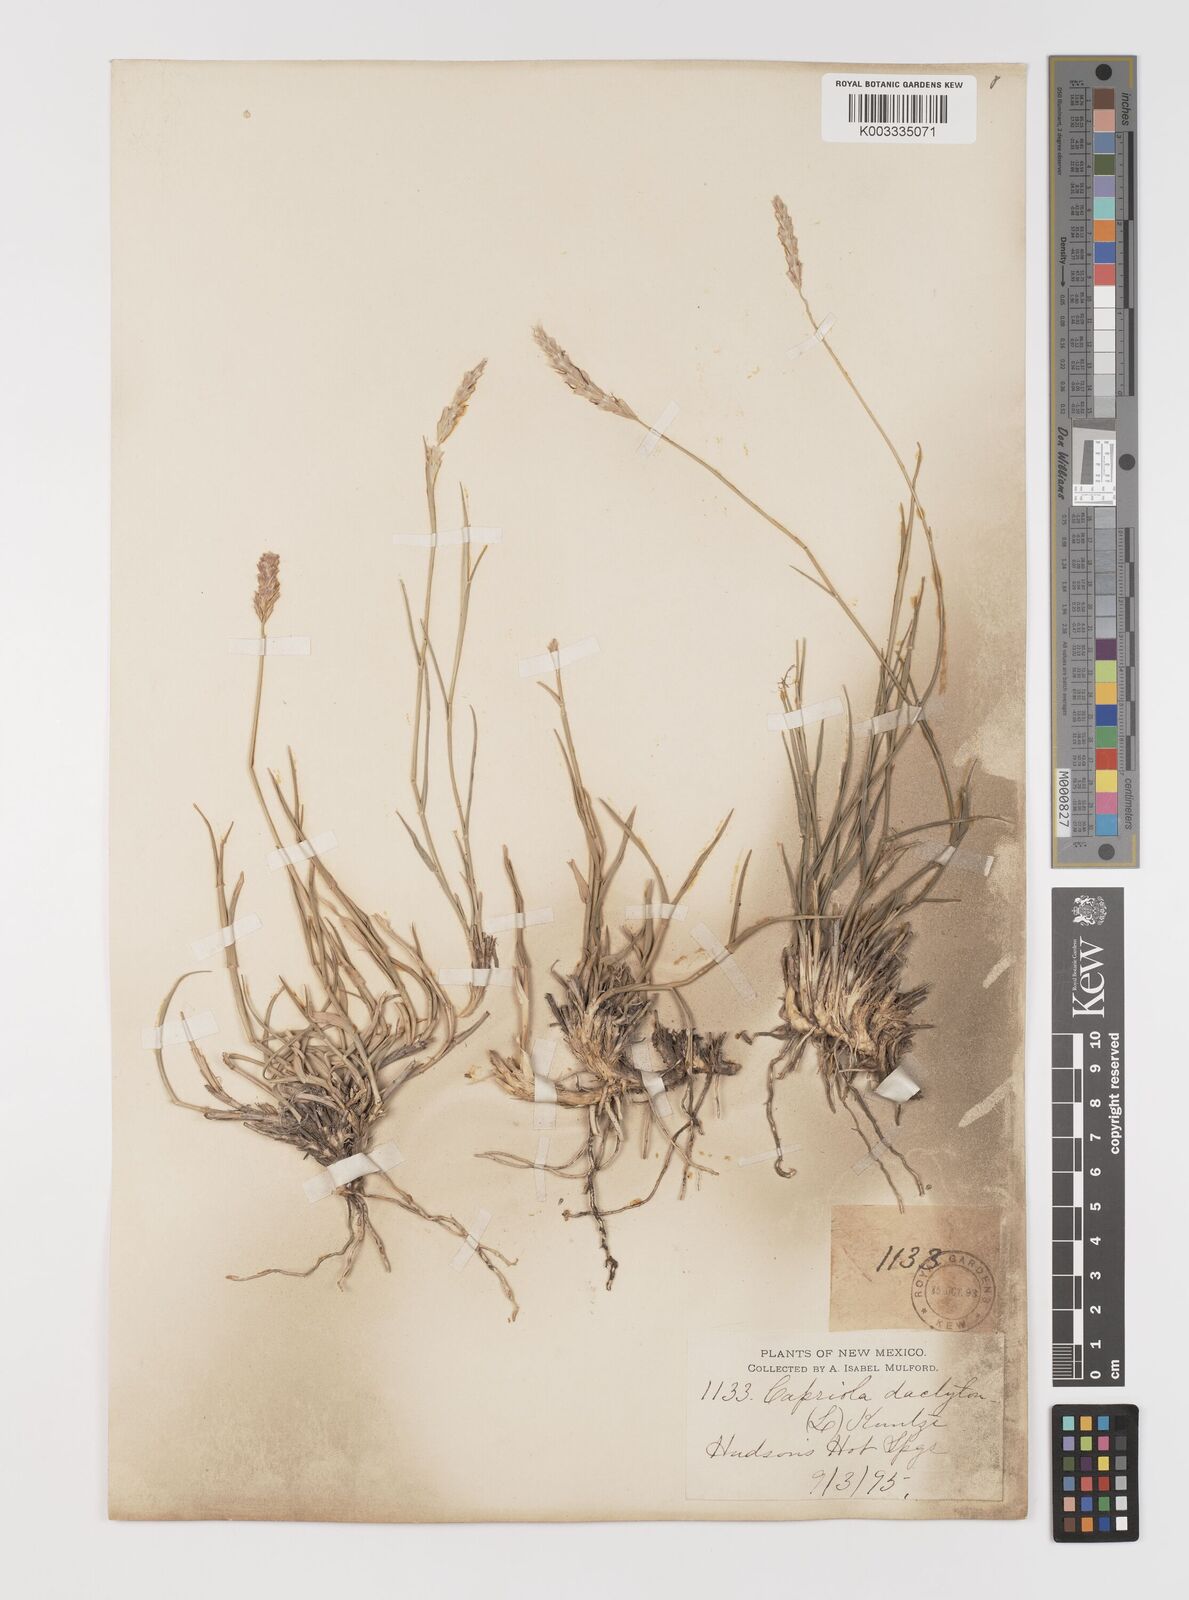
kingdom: Plantae
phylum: Tracheophyta
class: Liliopsida
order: Poales
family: Poaceae
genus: Hilaria
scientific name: Hilaria jamesii
